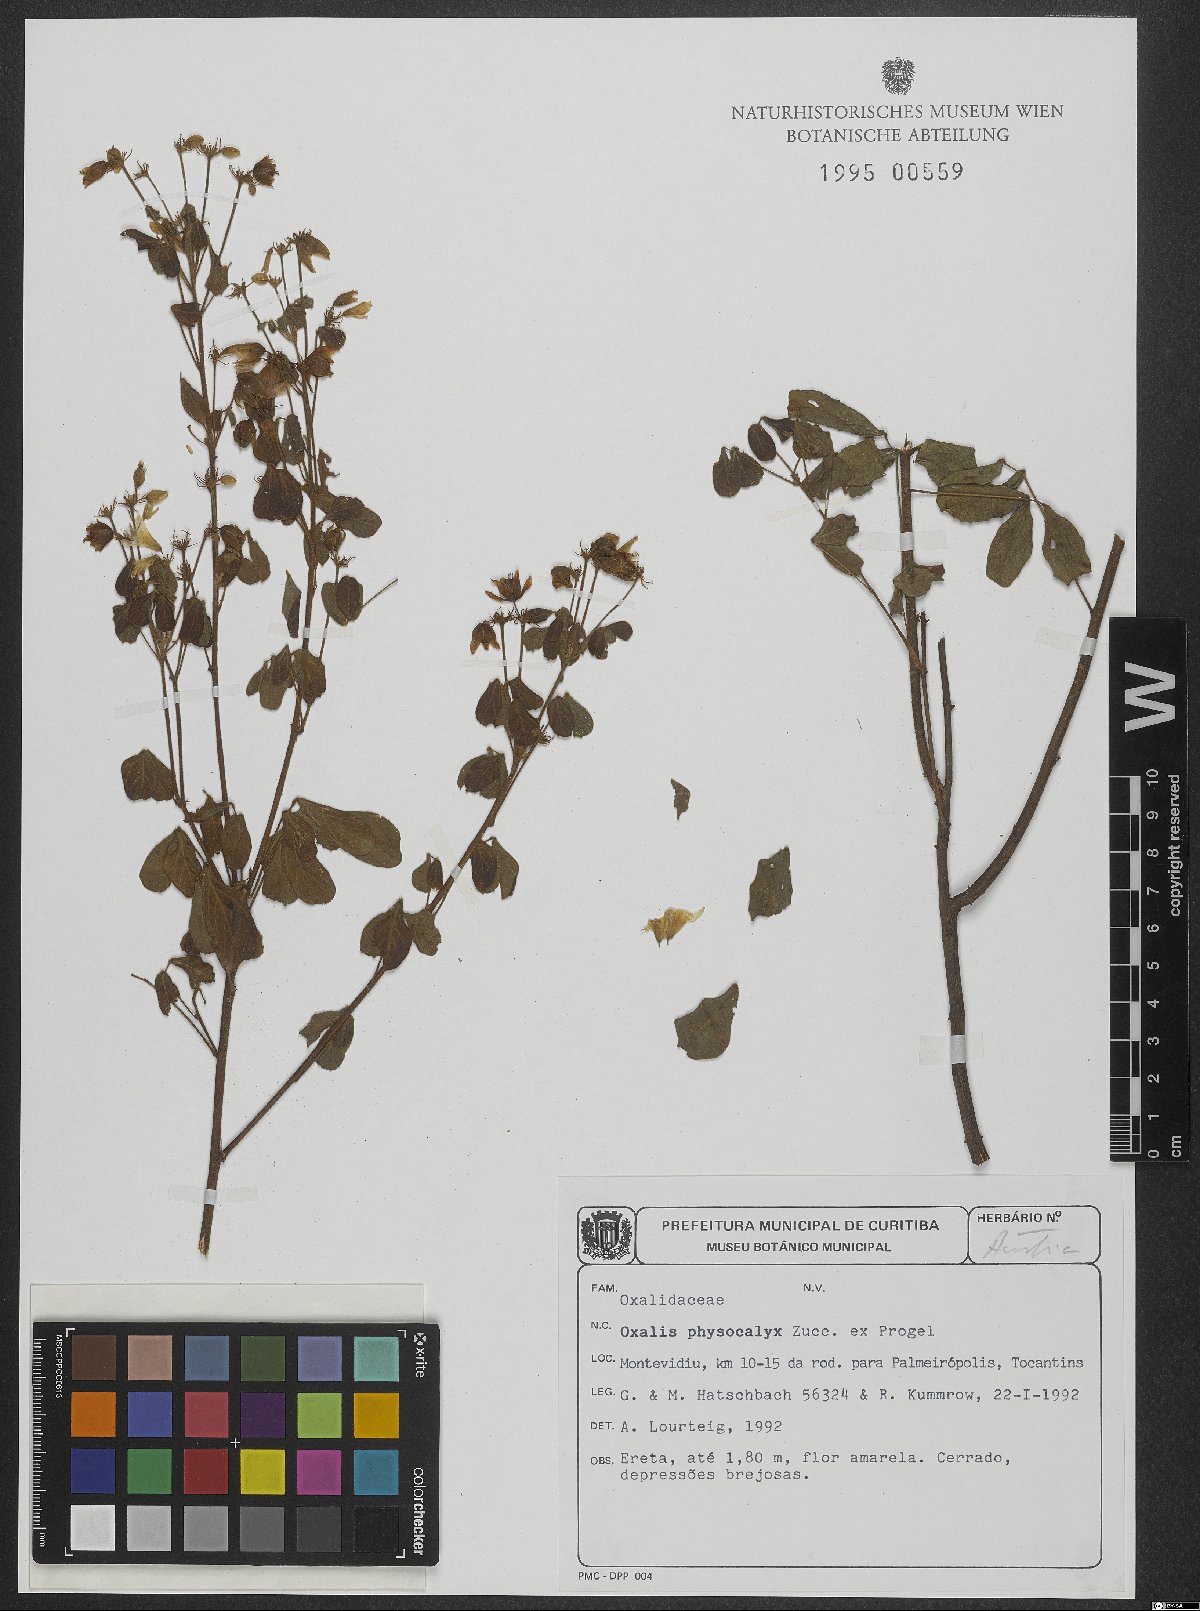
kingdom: Plantae
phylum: Tracheophyta
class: Magnoliopsida
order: Oxalidales
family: Oxalidaceae
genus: Oxalis
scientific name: Oxalis physocalyx
